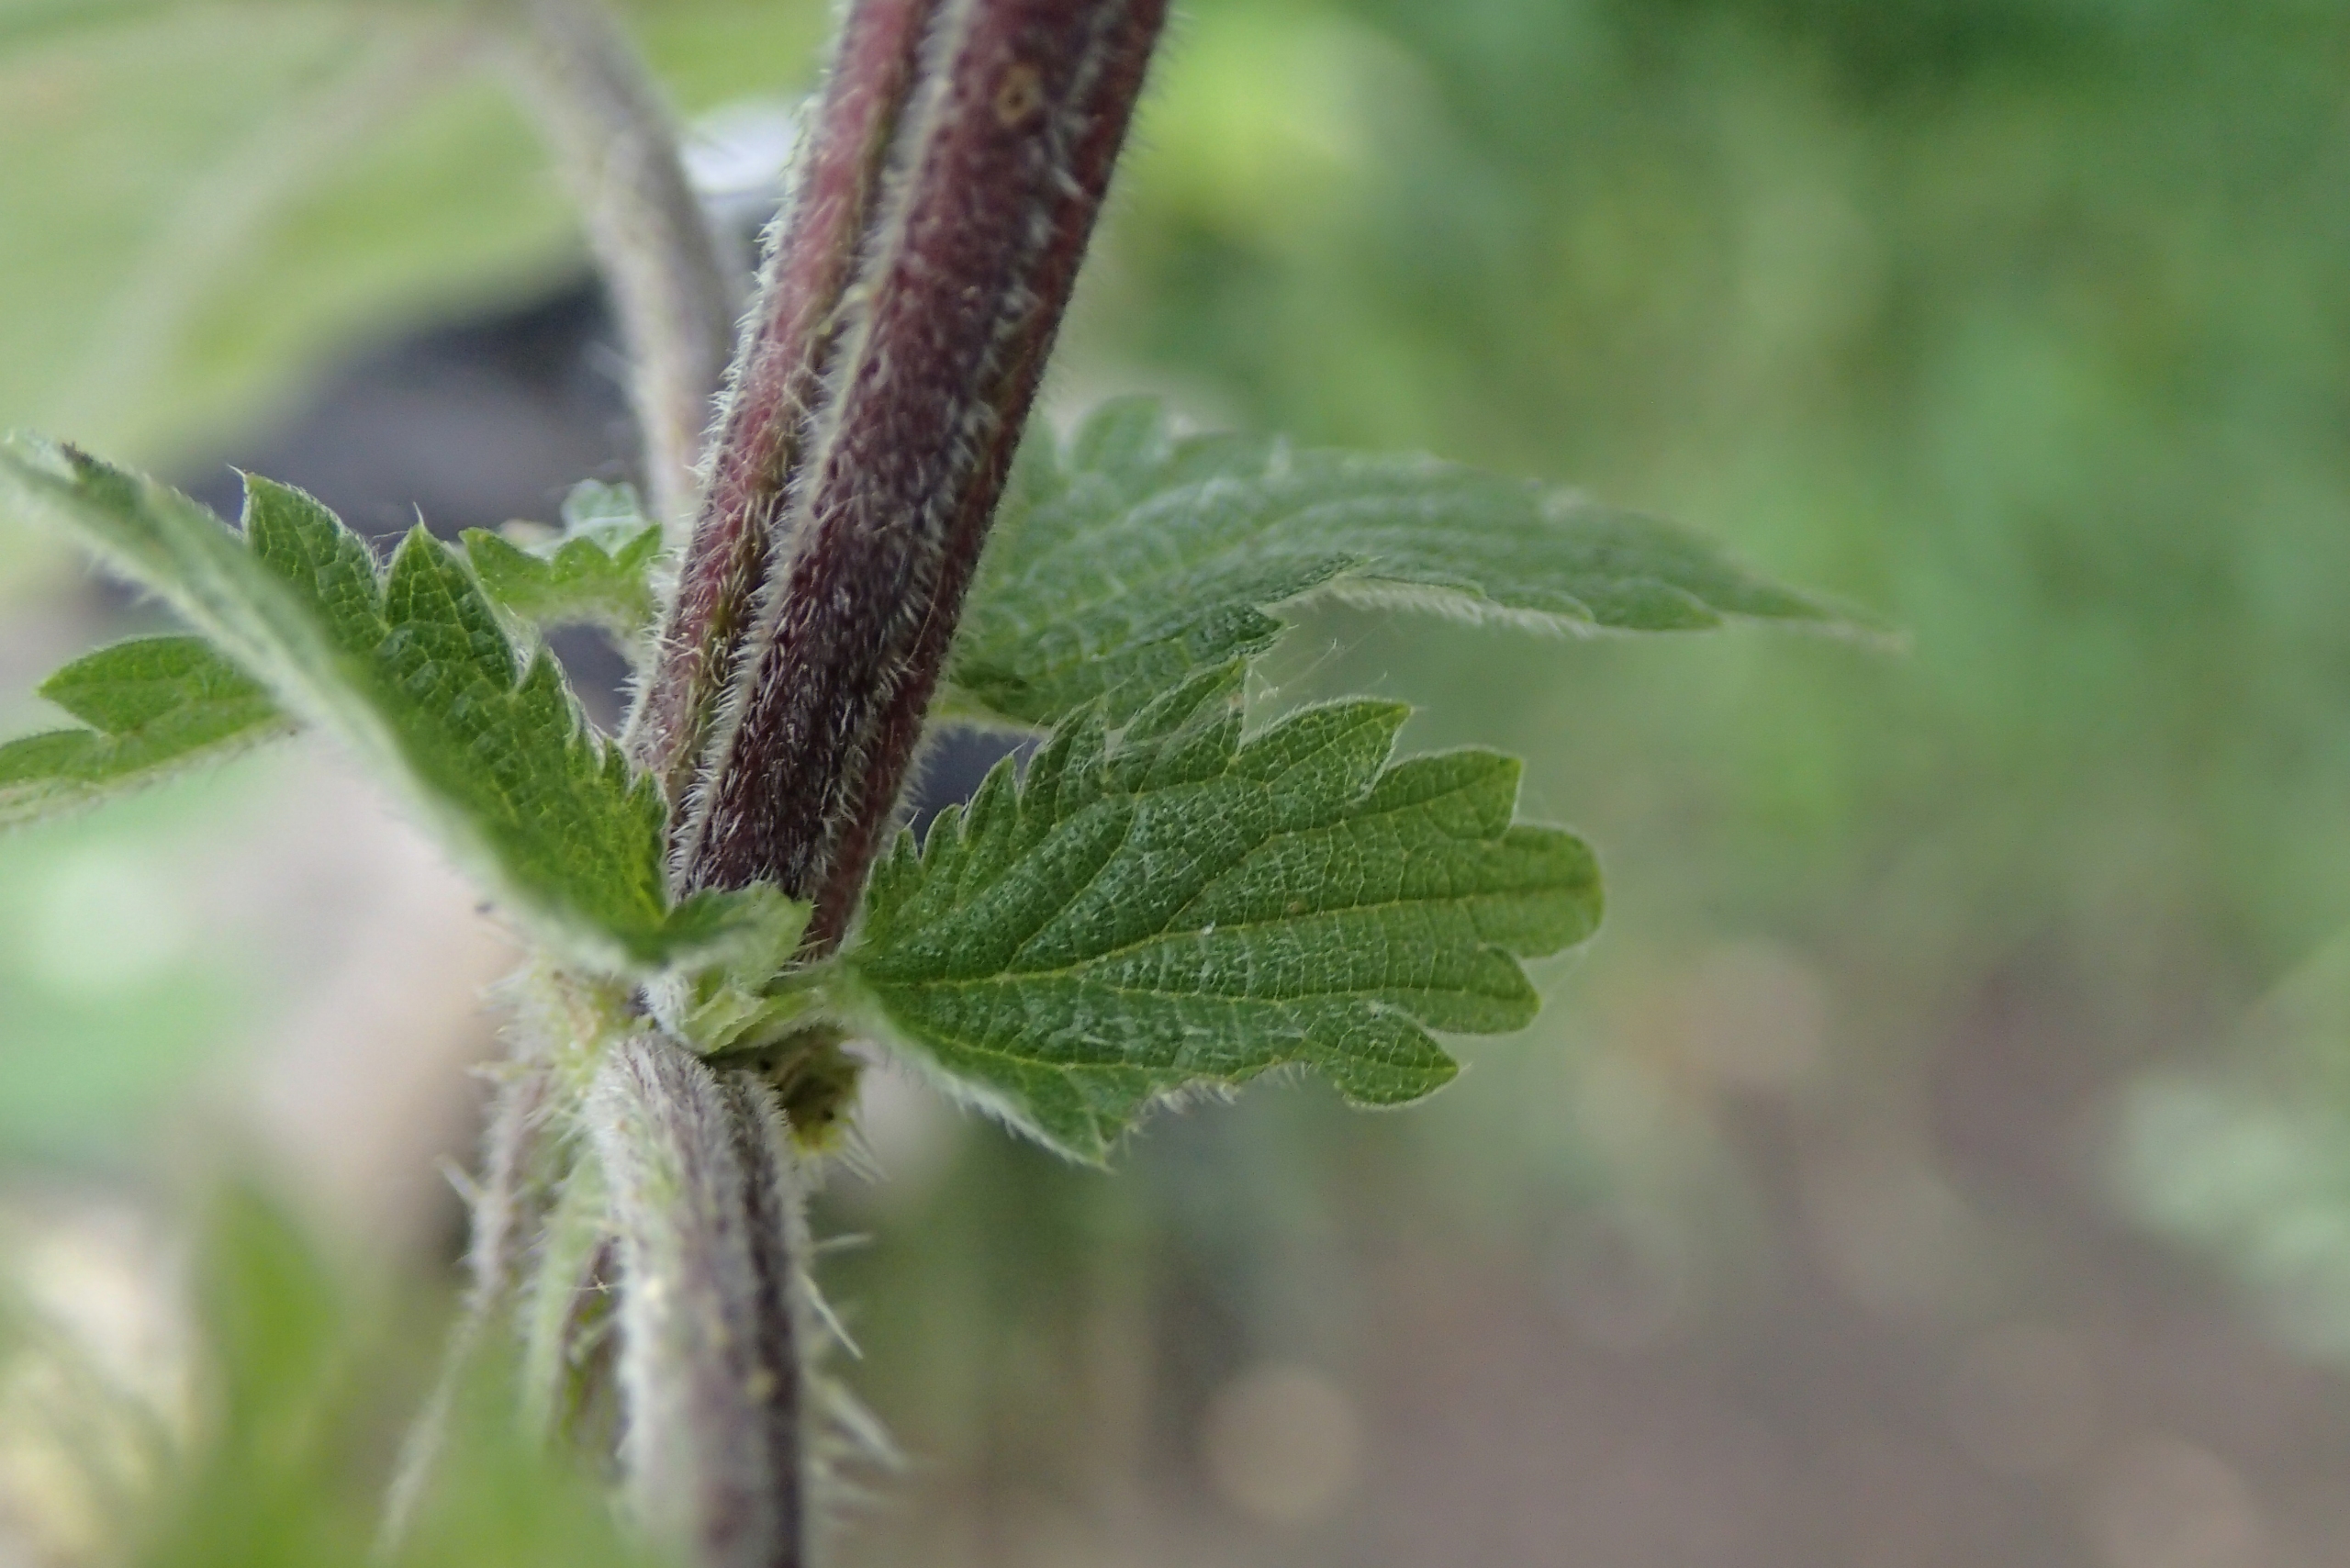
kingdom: Plantae
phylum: Tracheophyta
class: Magnoliopsida
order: Rosales
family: Urticaceae
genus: Urtica
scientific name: Urtica dioica
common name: Stor nælde
